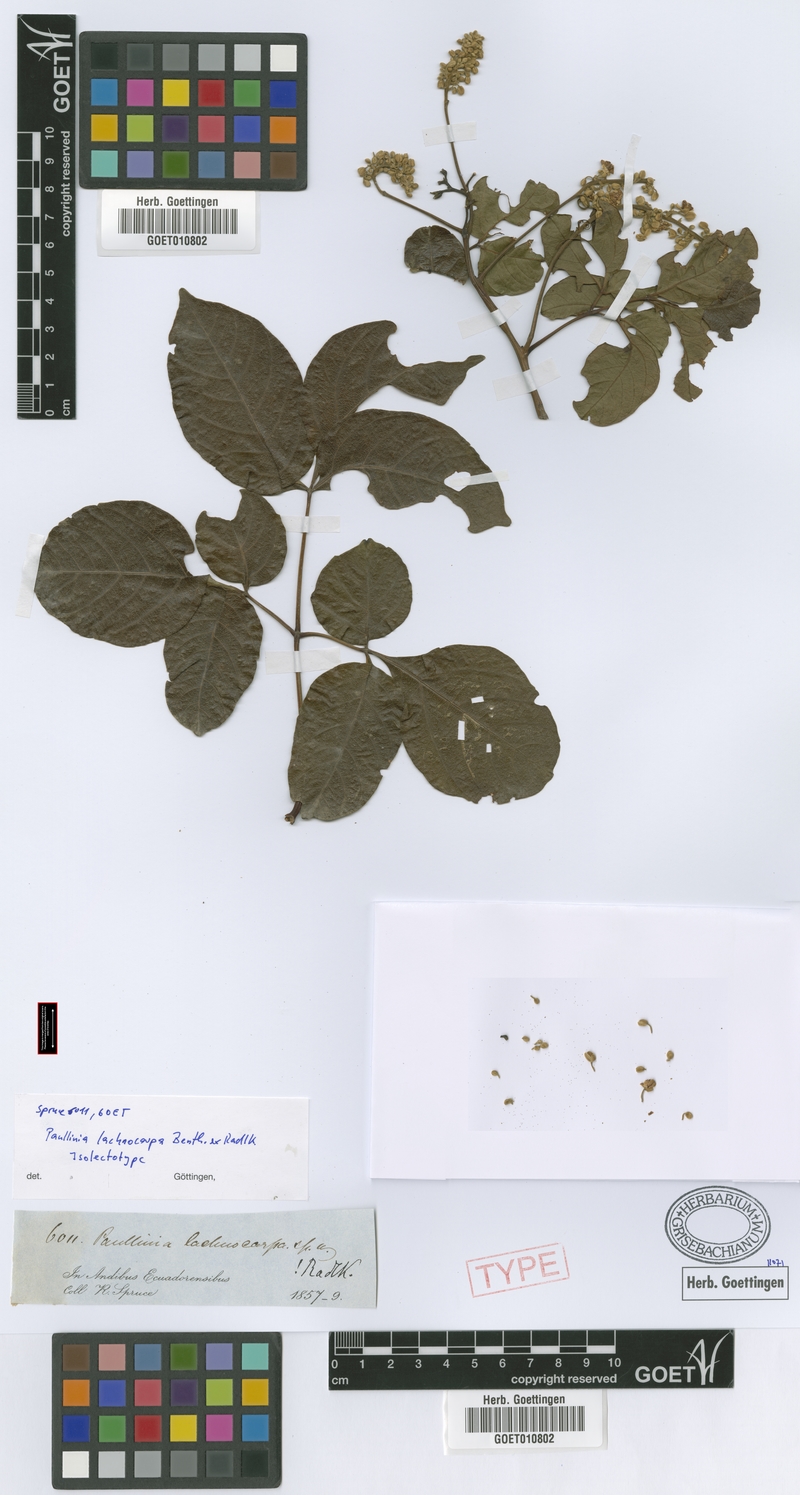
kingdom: Plantae
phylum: Tracheophyta
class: Magnoliopsida
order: Sapindales
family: Sapindaceae
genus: Serjania
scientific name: Serjania lachnocarpa
